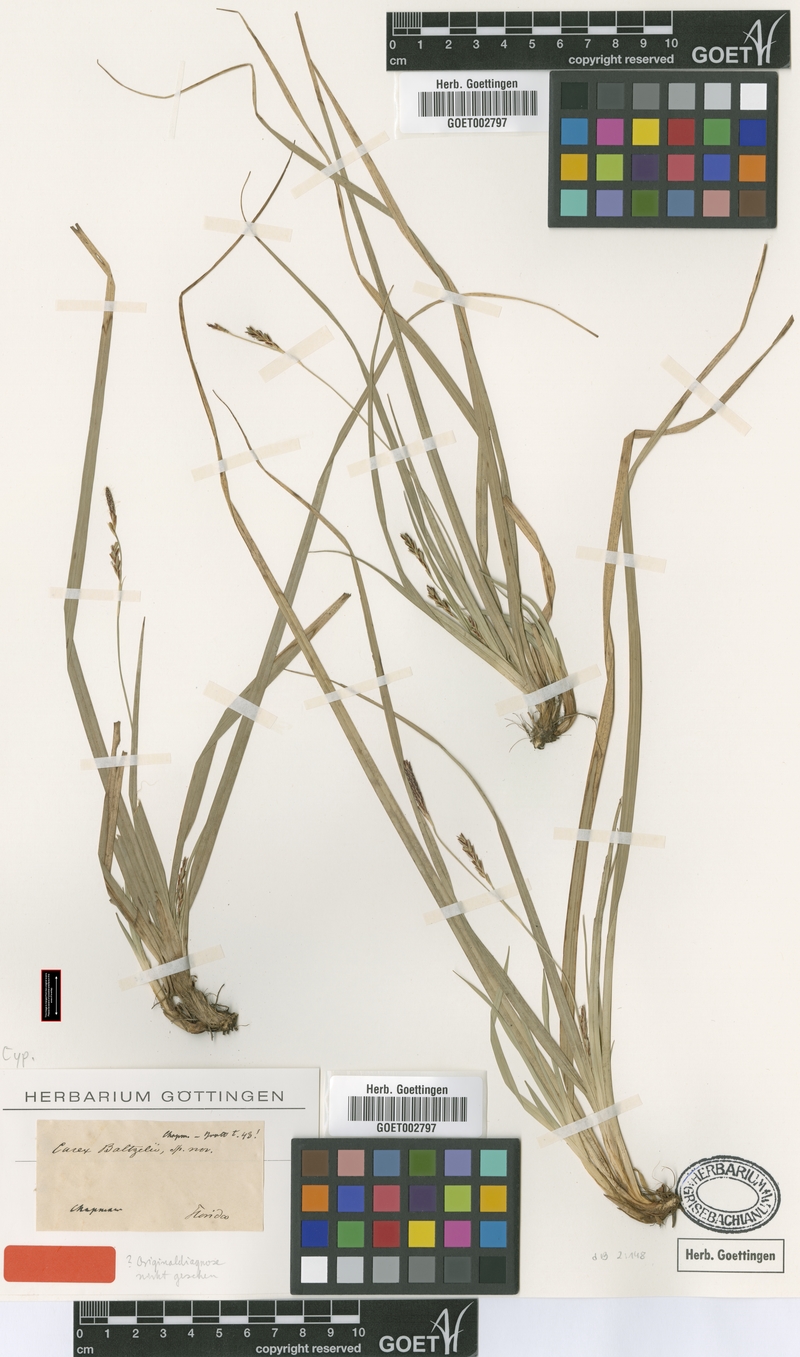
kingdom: Plantae
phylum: Tracheophyta
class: Liliopsida
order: Poales
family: Cyperaceae
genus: Carex
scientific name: Carex baltzellii
